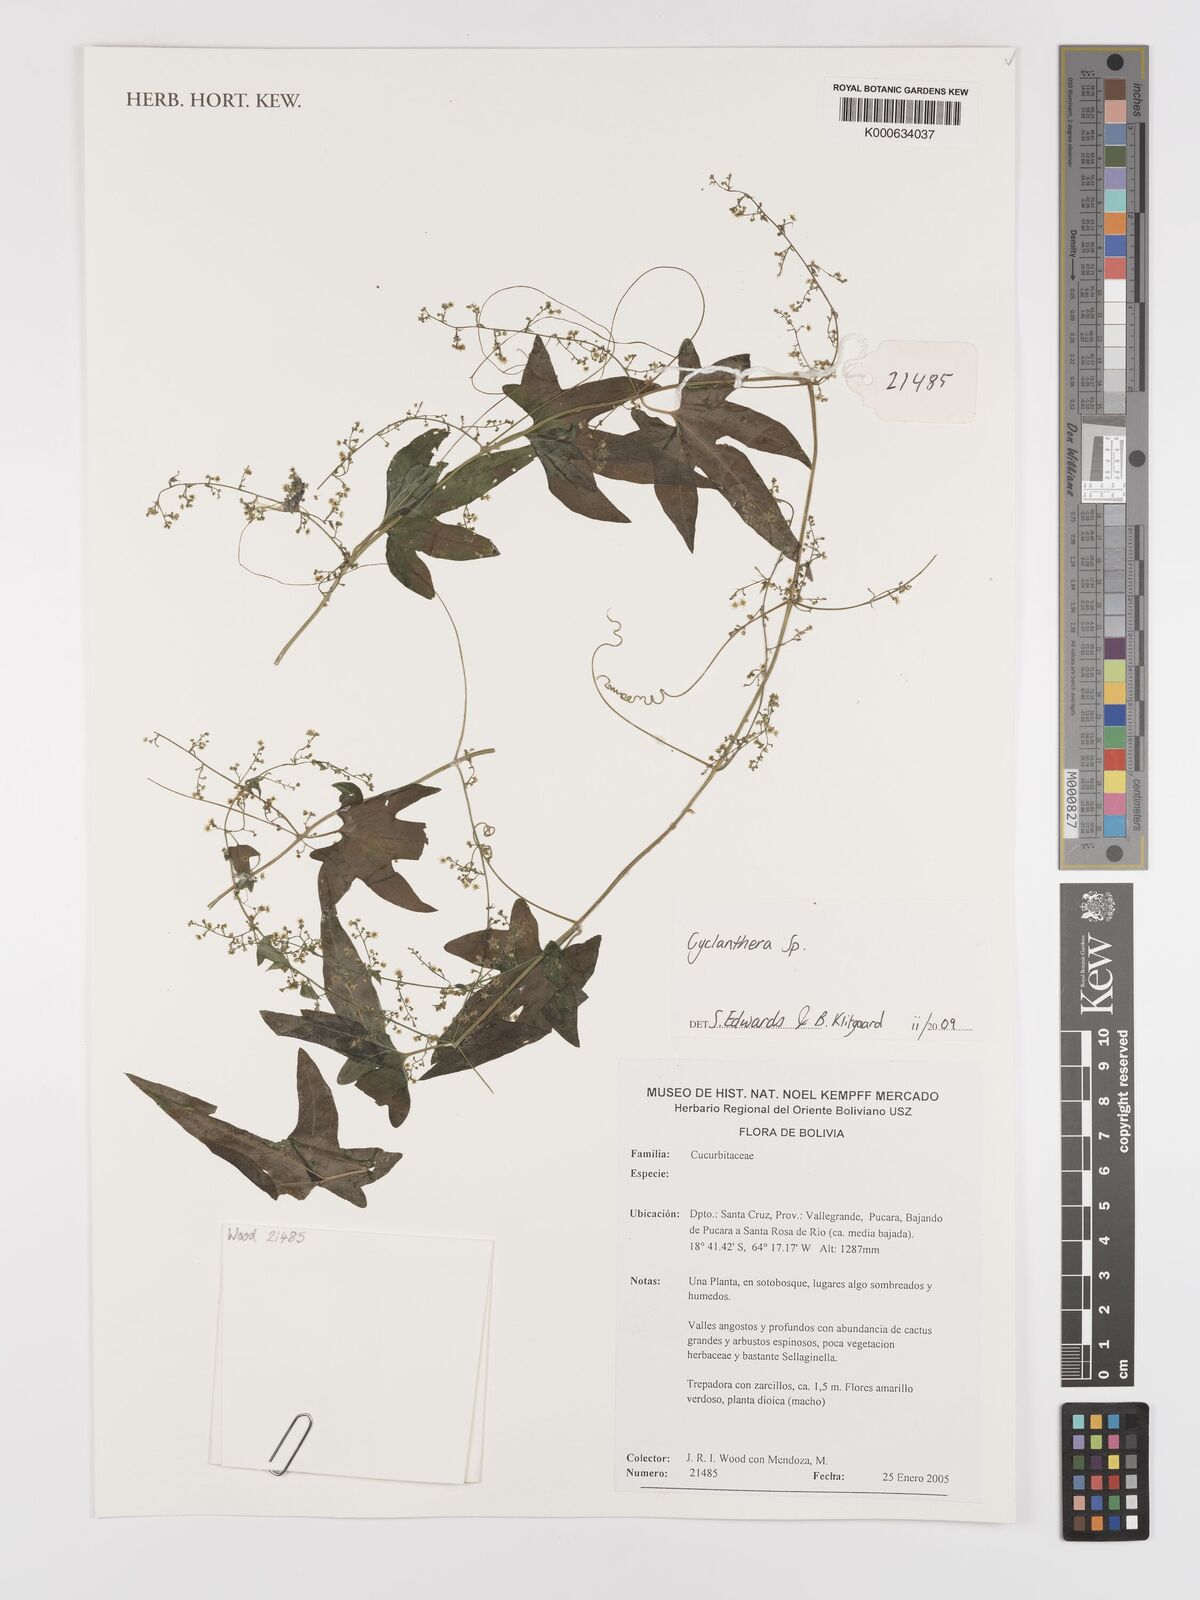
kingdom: Plantae
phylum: Tracheophyta
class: Magnoliopsida
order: Cucurbitales
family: Cucurbitaceae
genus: Cyclanthera
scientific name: Cyclanthera
